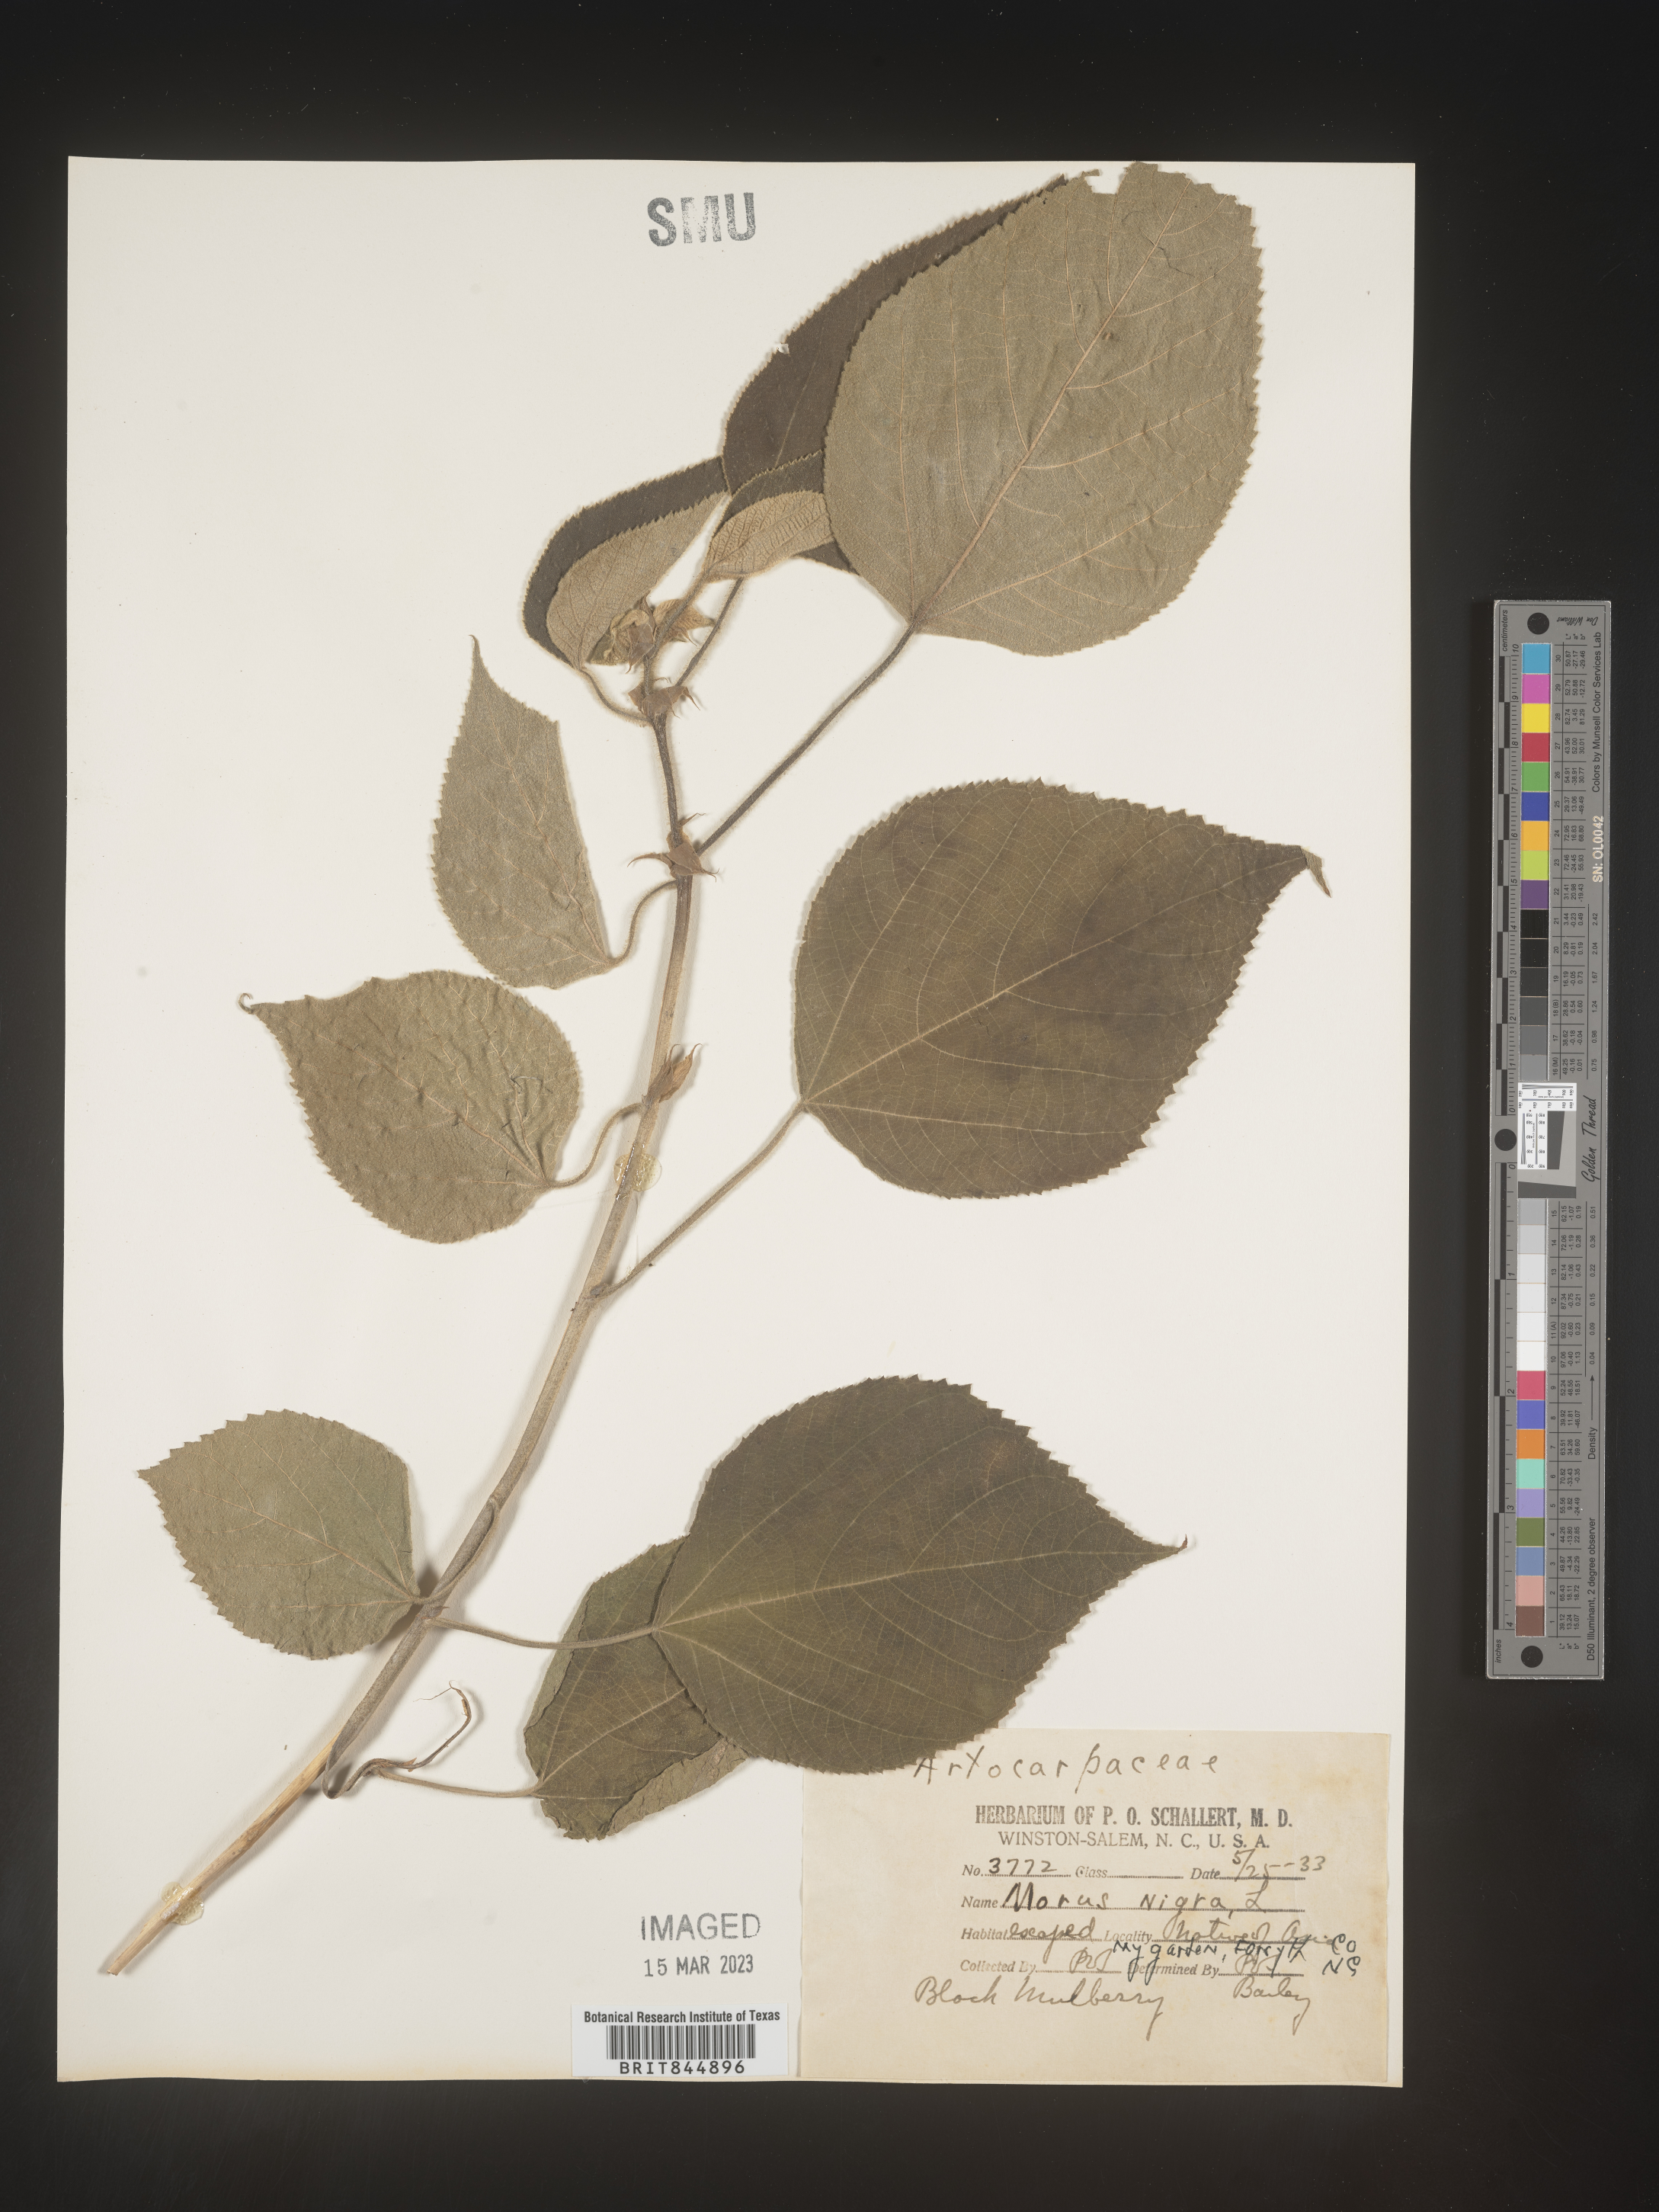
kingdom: Plantae
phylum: Tracheophyta
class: Magnoliopsida
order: Rosales
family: Moraceae
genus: Broussonetia
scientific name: Broussonetia
